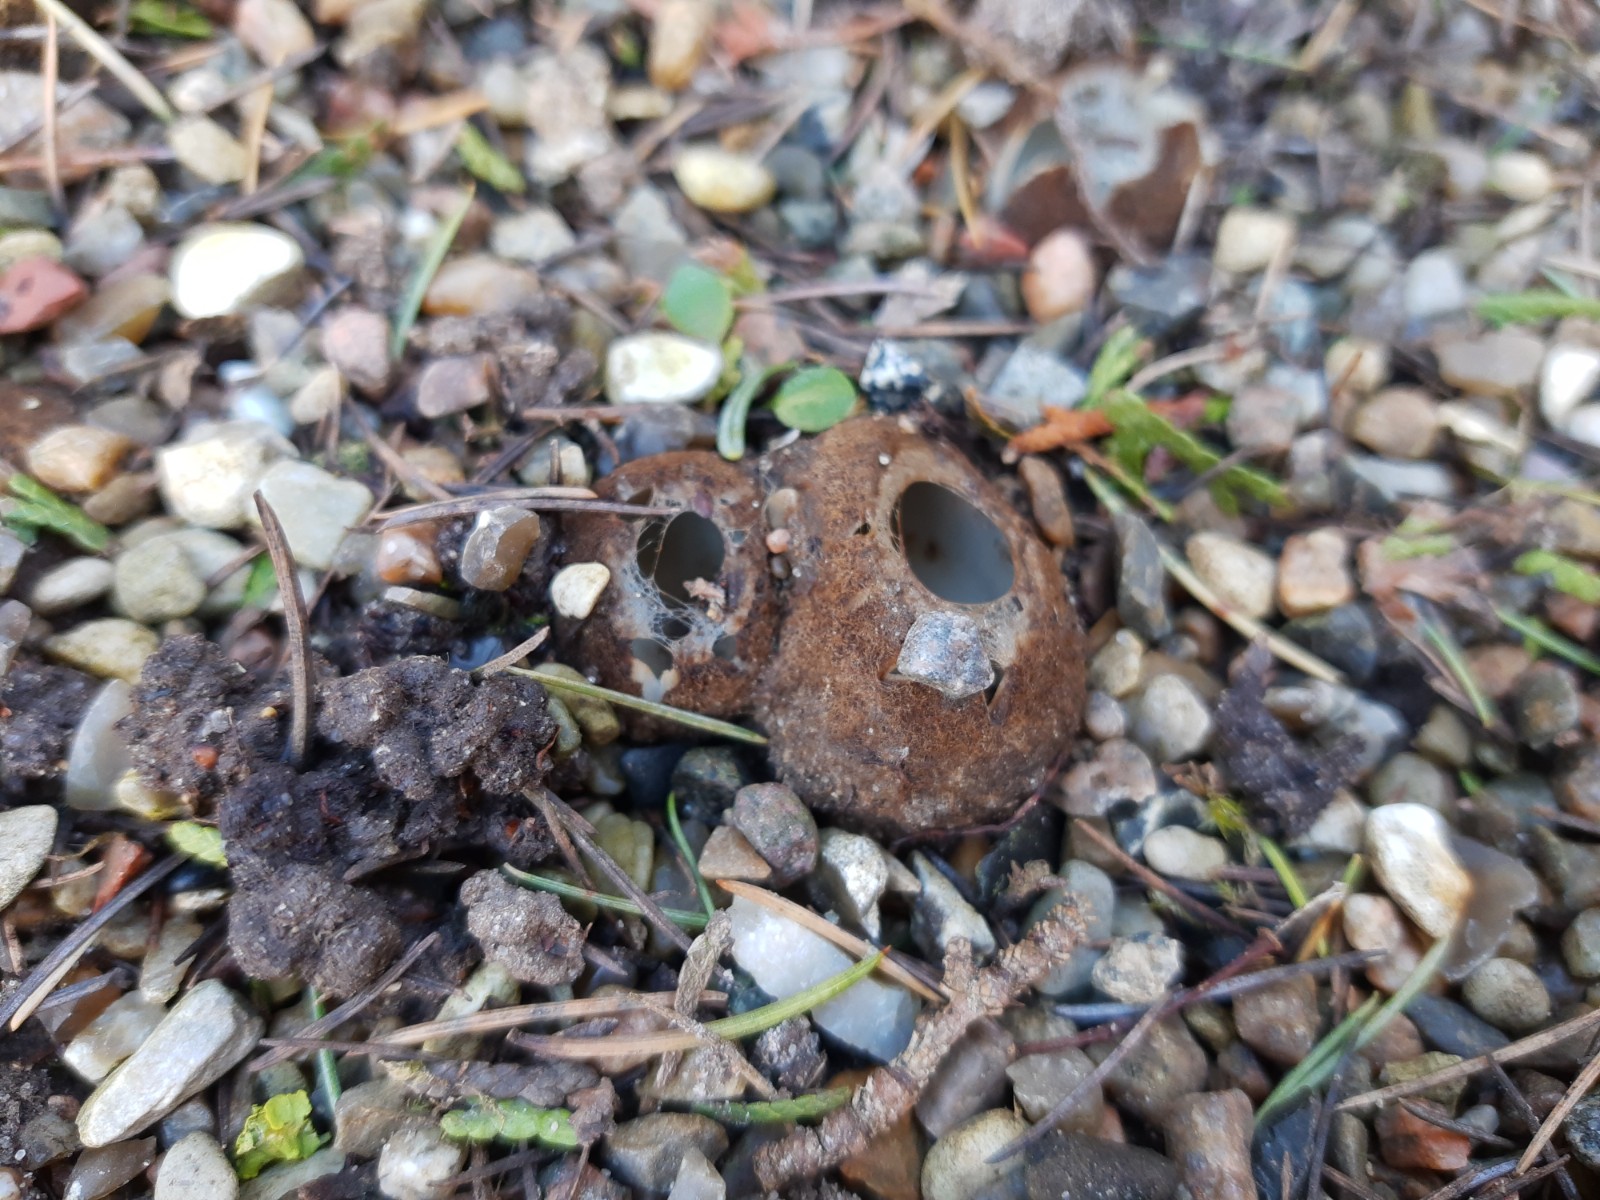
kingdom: Fungi
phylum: Ascomycota
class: Pezizomycetes
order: Pezizales
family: Pyronemataceae
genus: Geopora
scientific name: Geopora sumneriana
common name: vår-jordbæger
